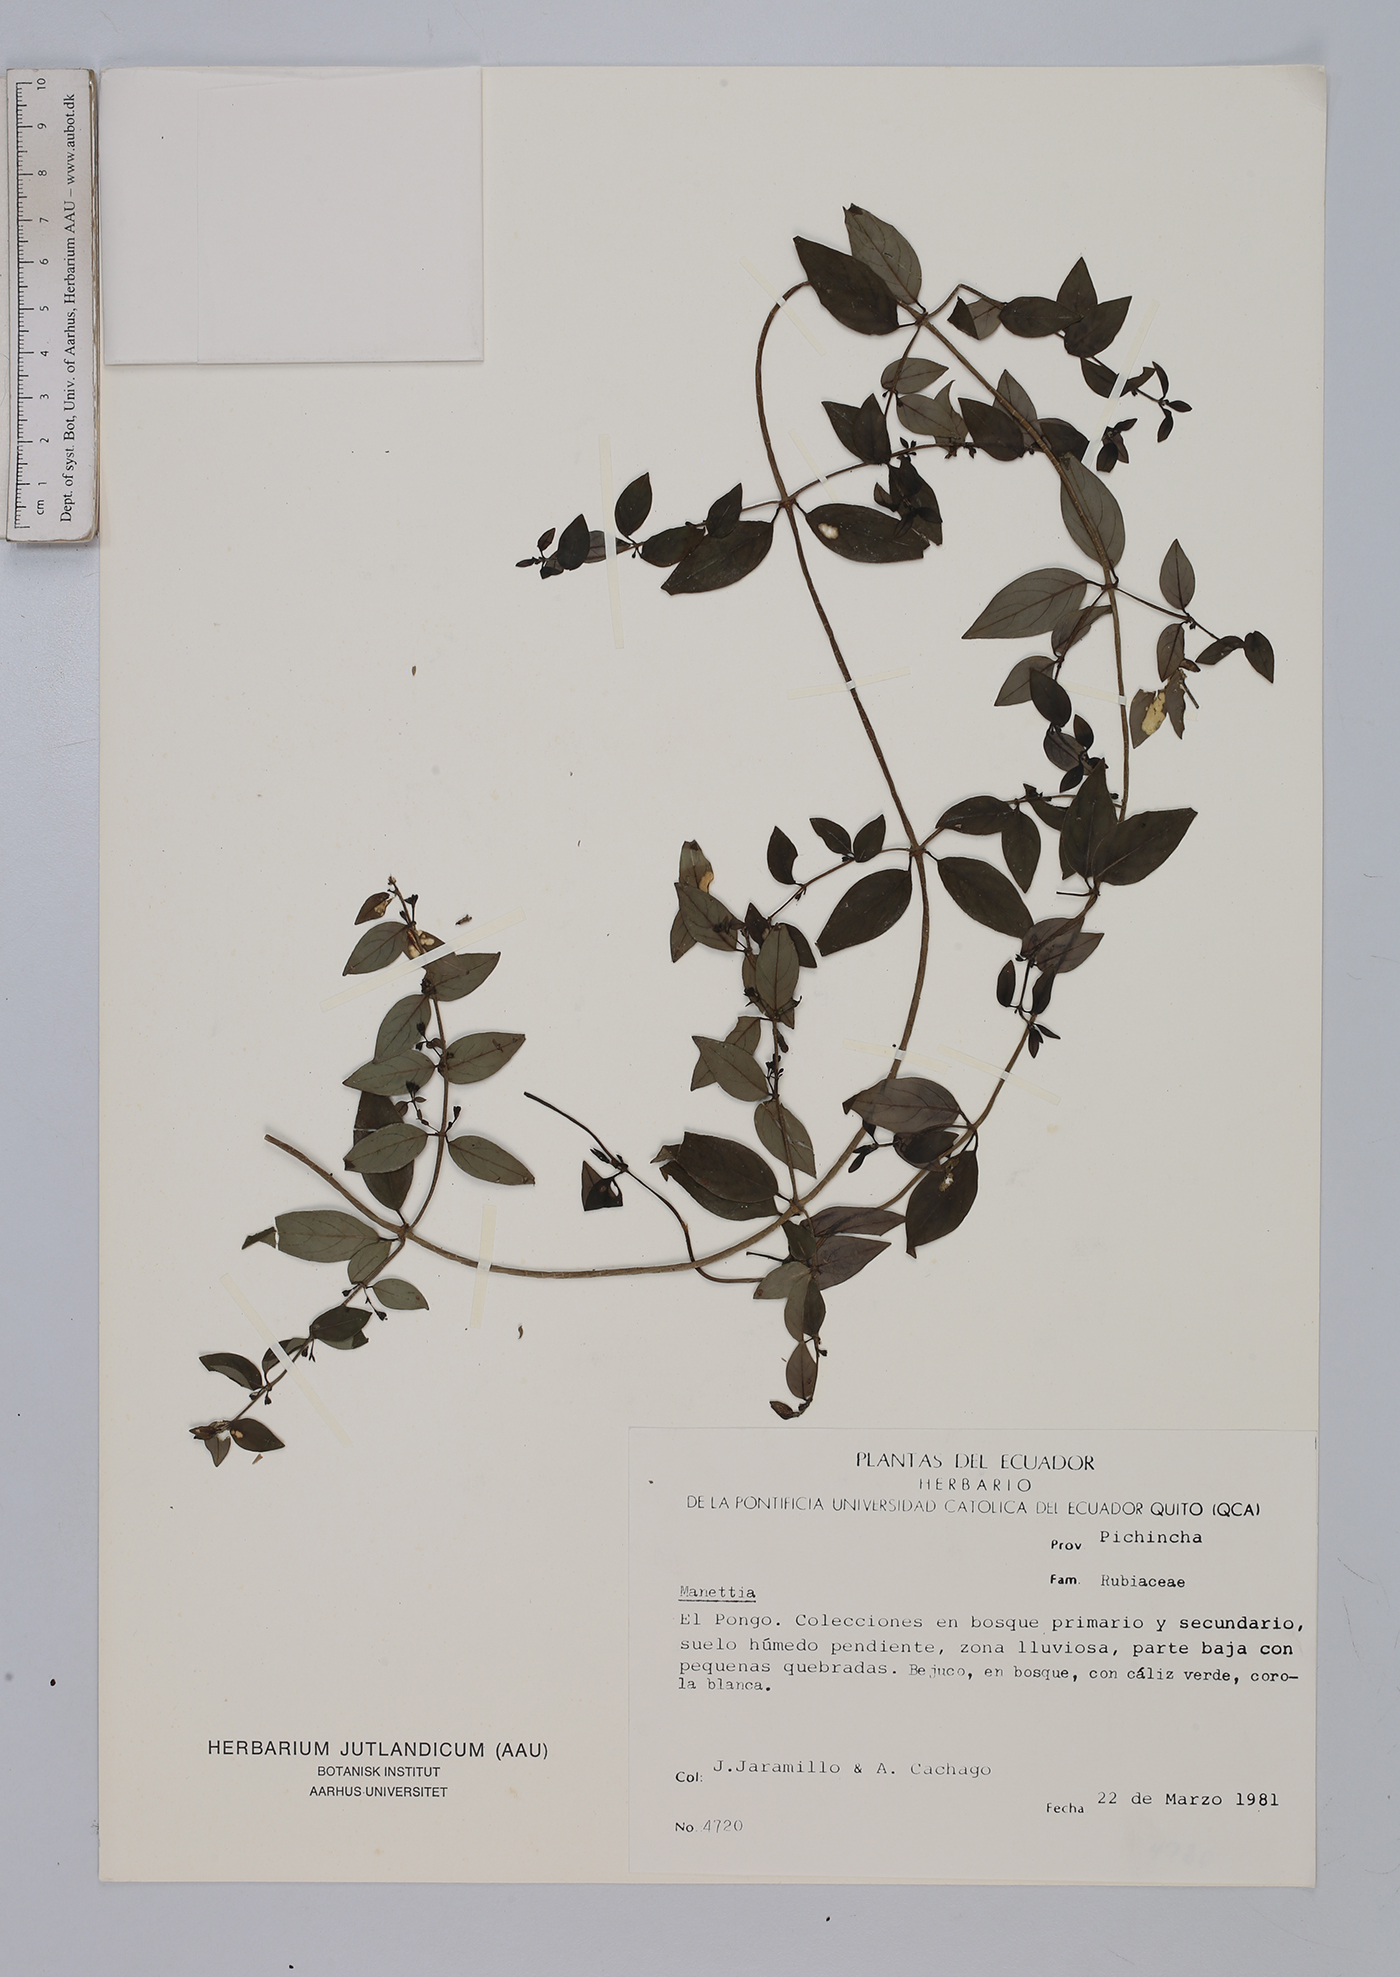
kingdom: Plantae
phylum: Tracheophyta
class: Magnoliopsida
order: Gentianales
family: Rubiaceae
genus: Manettia
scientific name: Manettia
